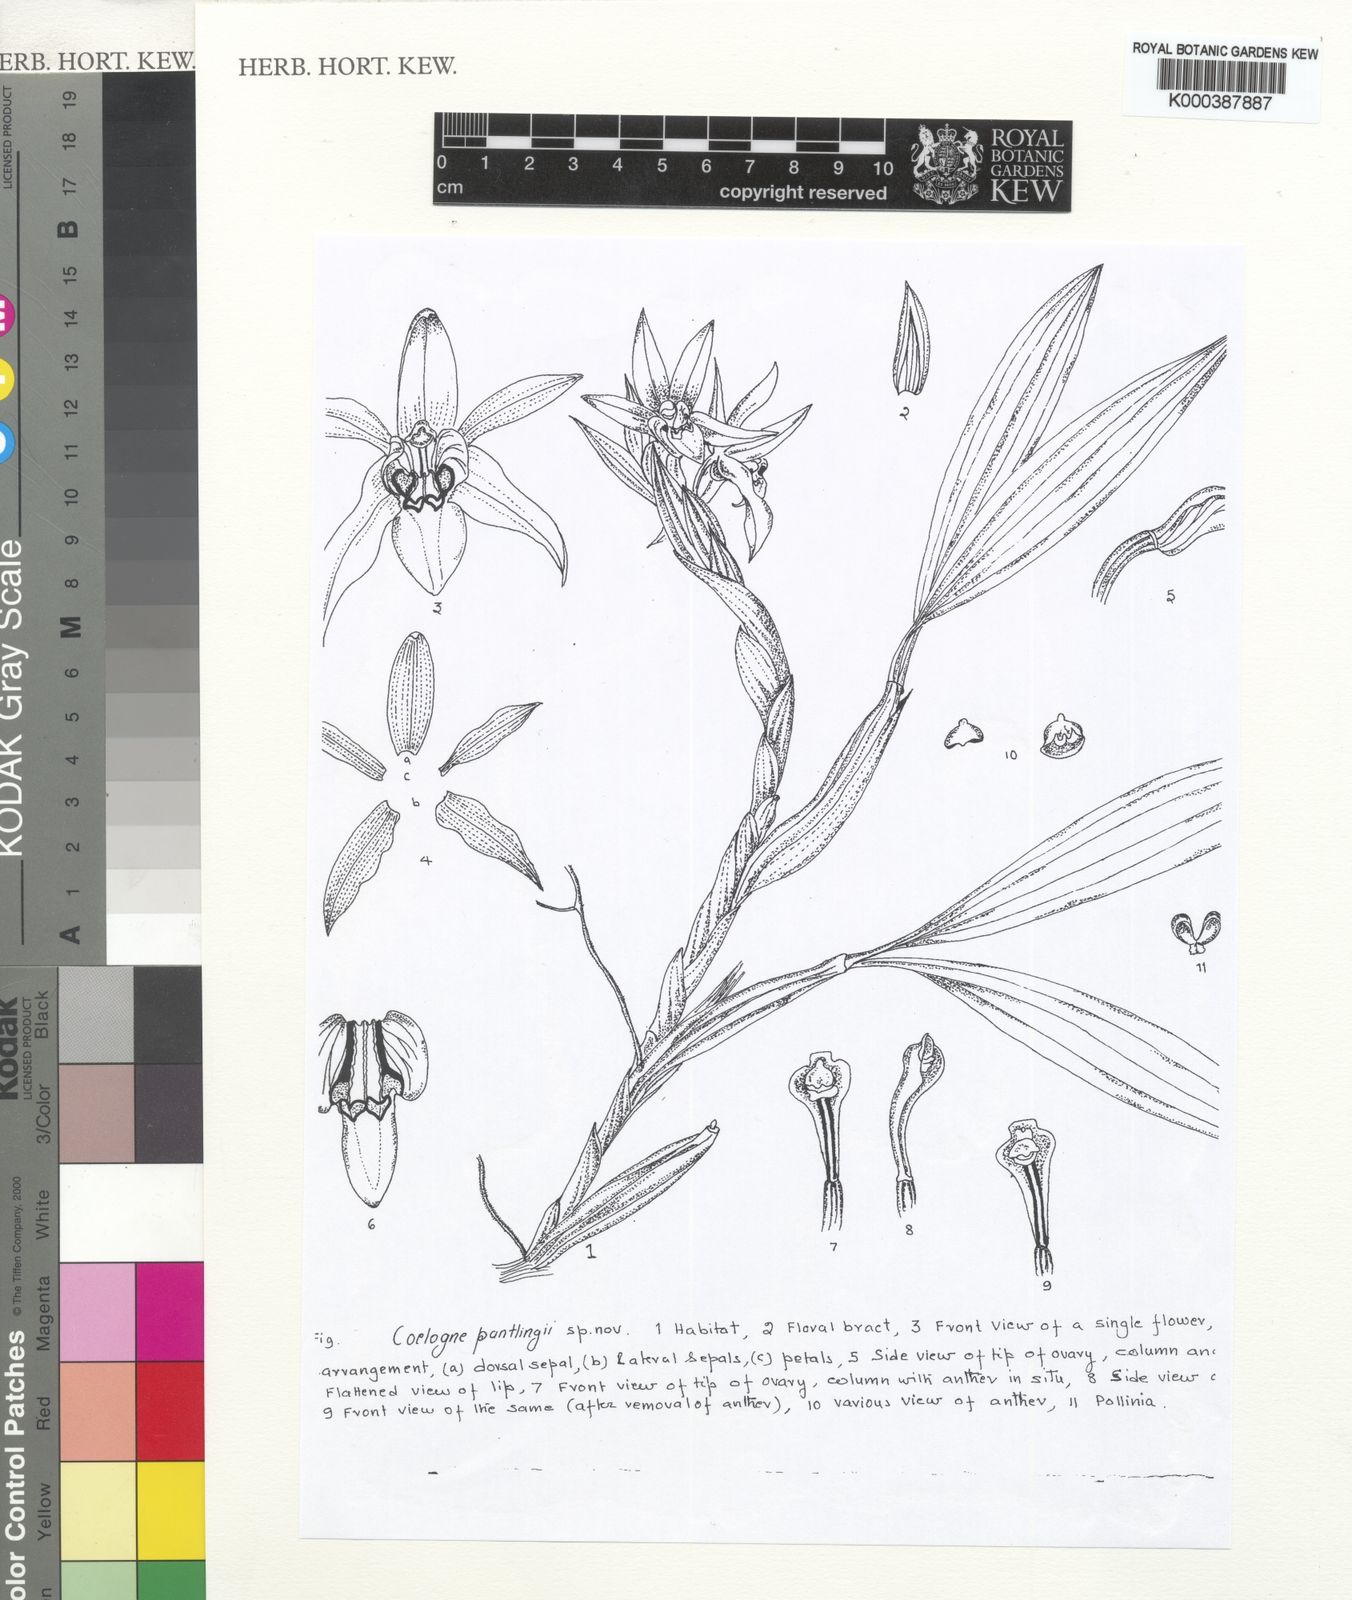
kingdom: Plantae
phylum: Tracheophyta
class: Liliopsida
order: Asparagales
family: Orchidaceae
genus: Coelogyne
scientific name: Coelogyne pantlingii
